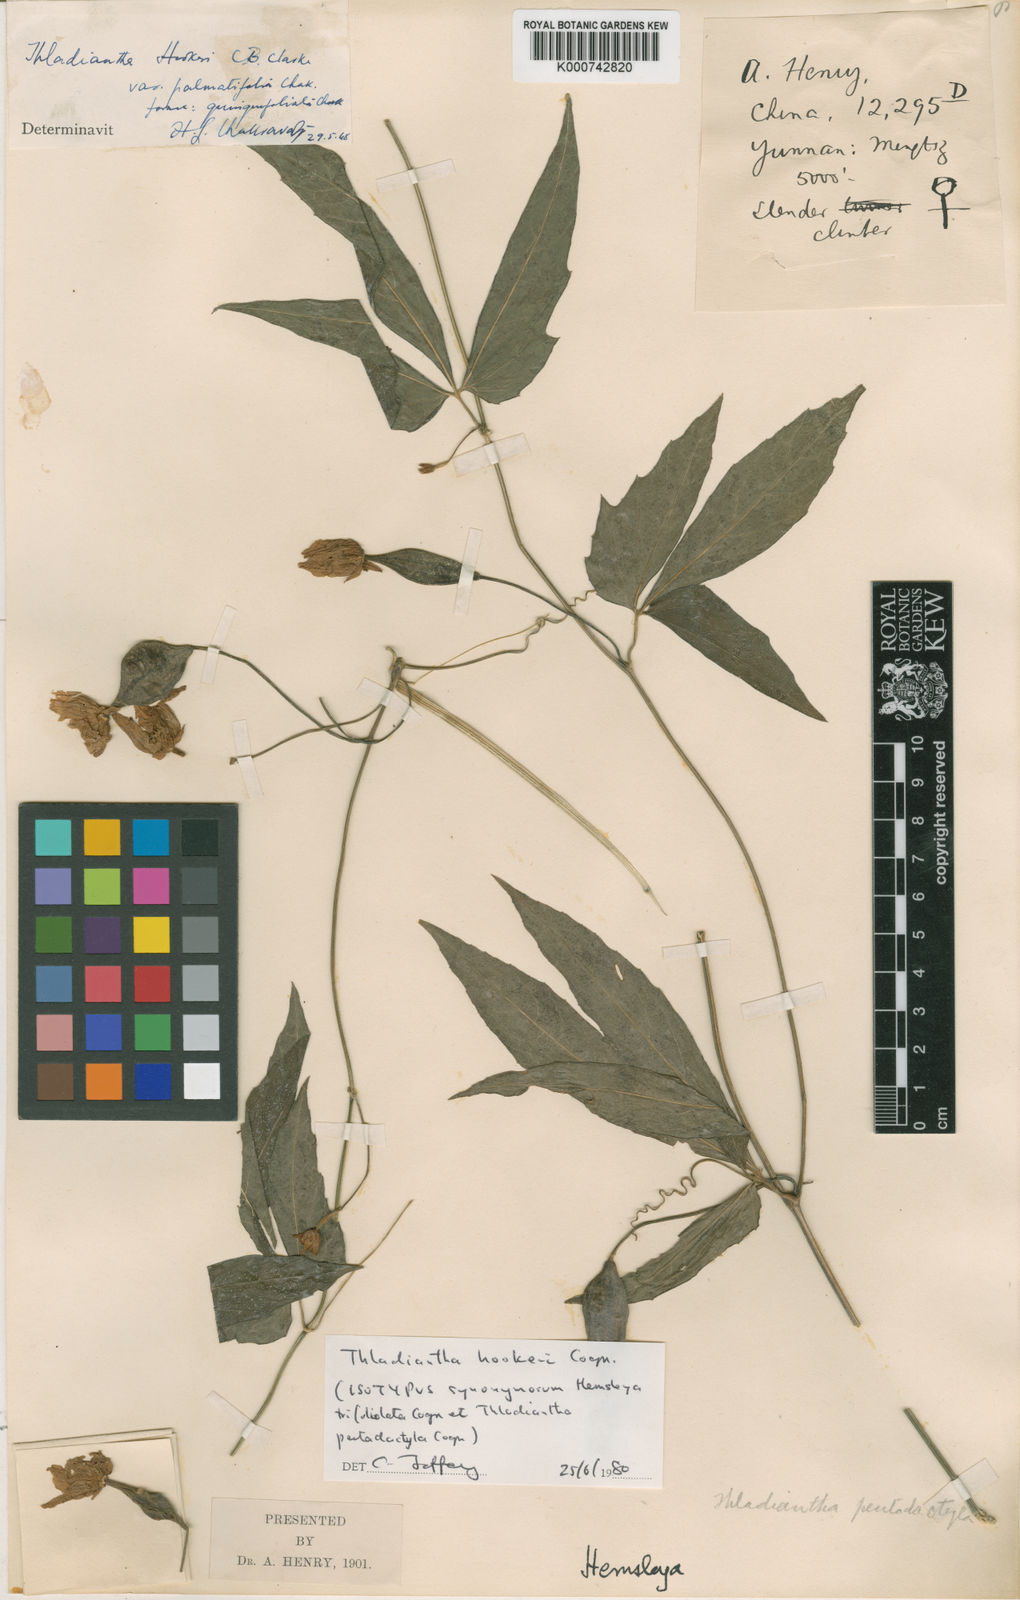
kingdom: Plantae
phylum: Tracheophyta
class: Magnoliopsida
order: Cucurbitales
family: Cucurbitaceae
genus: Thladiantha
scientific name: Thladiantha
